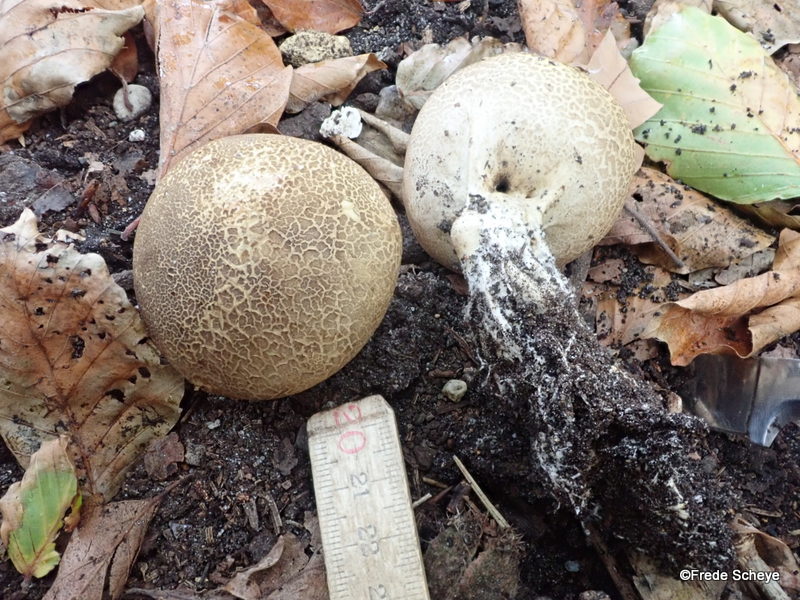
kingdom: Fungi
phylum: Basidiomycota
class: Agaricomycetes
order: Boletales
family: Sclerodermataceae
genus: Scleroderma
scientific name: Scleroderma verrucosum
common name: stilket bruskbold
